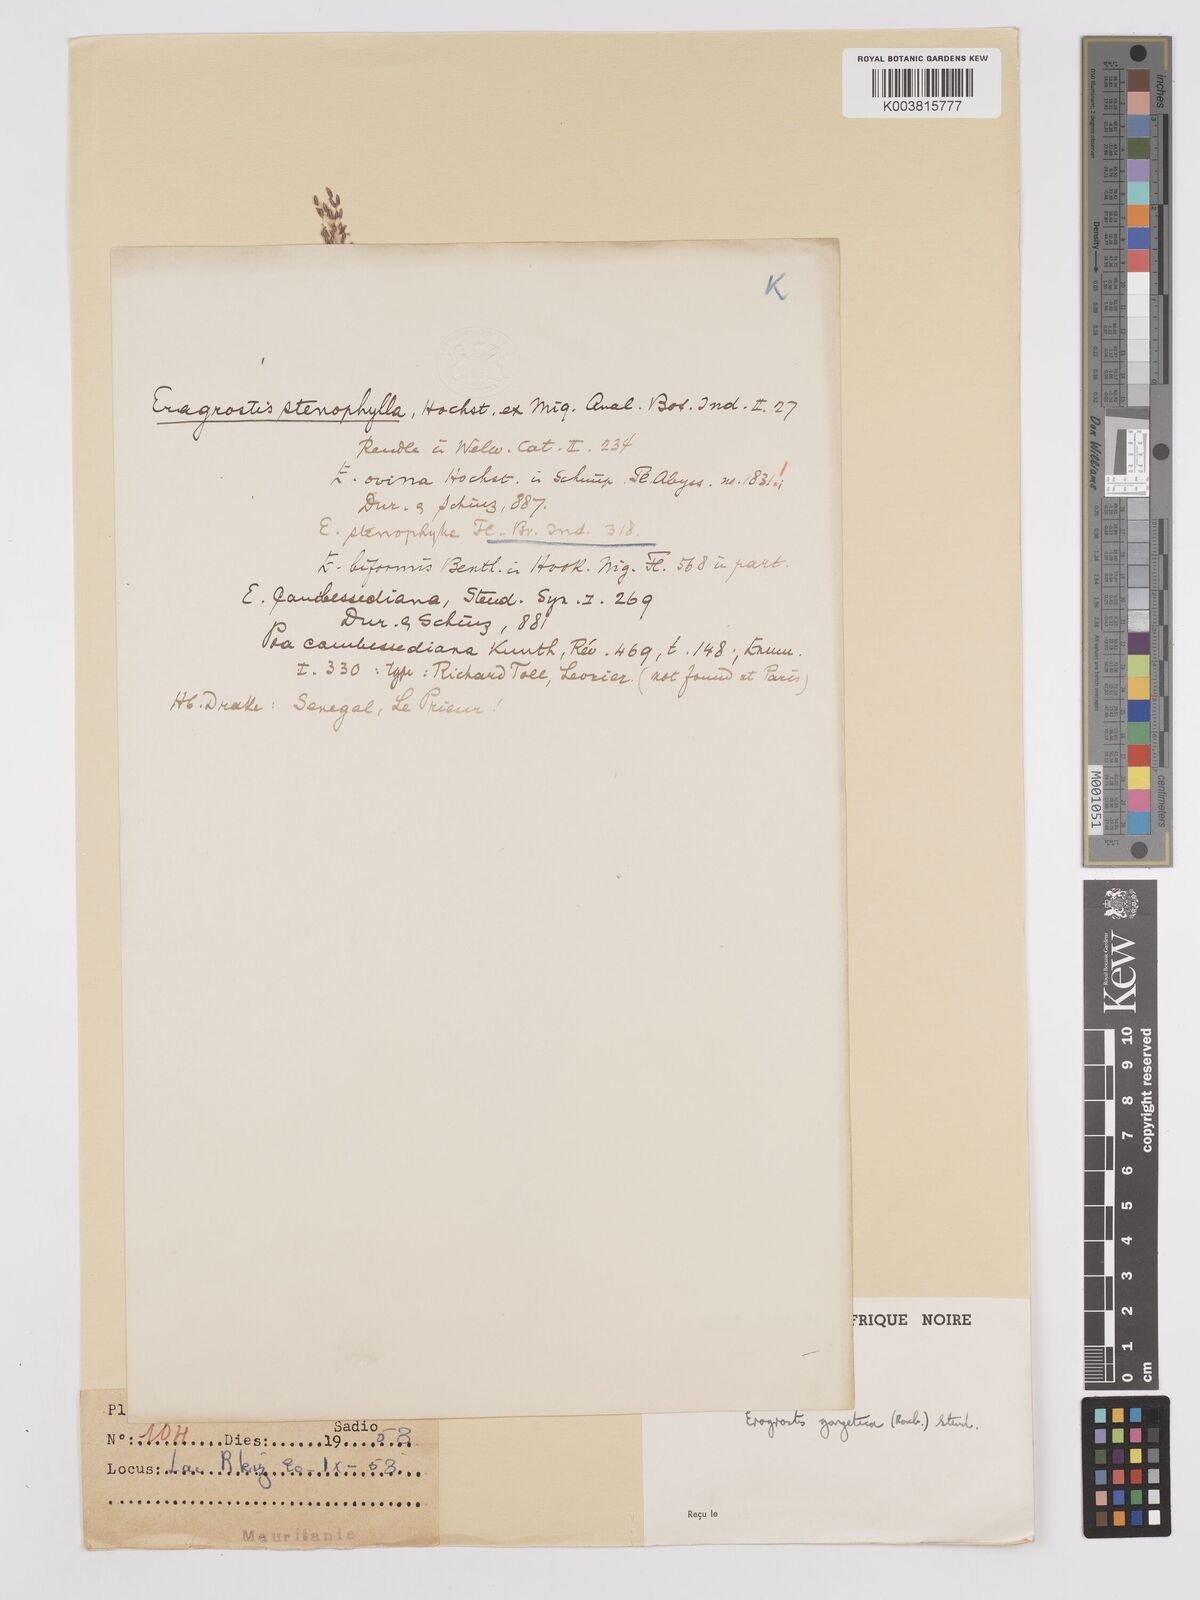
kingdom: Plantae
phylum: Tracheophyta
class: Liliopsida
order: Poales
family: Poaceae
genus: Eragrostis
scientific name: Eragrostis gangetica
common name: Slimflower lovegrass
